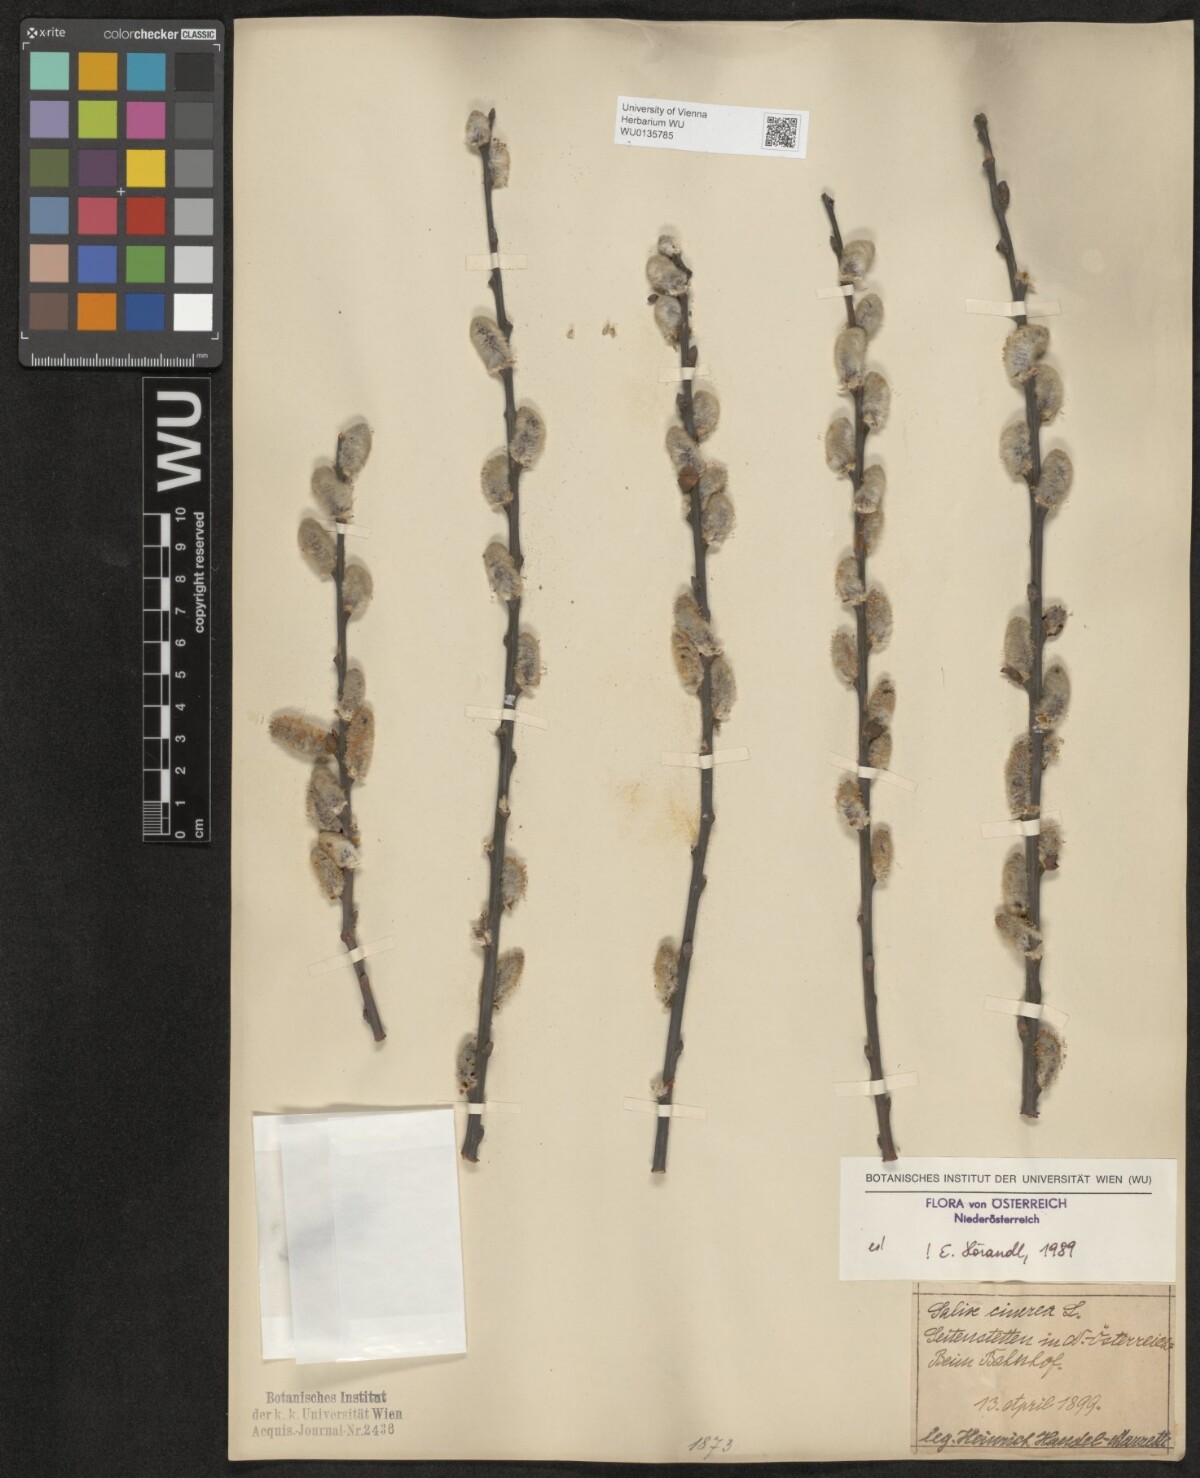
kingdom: Plantae
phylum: Tracheophyta
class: Magnoliopsida
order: Malpighiales
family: Salicaceae
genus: Salix
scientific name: Salix cinerea
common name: Common sallow
